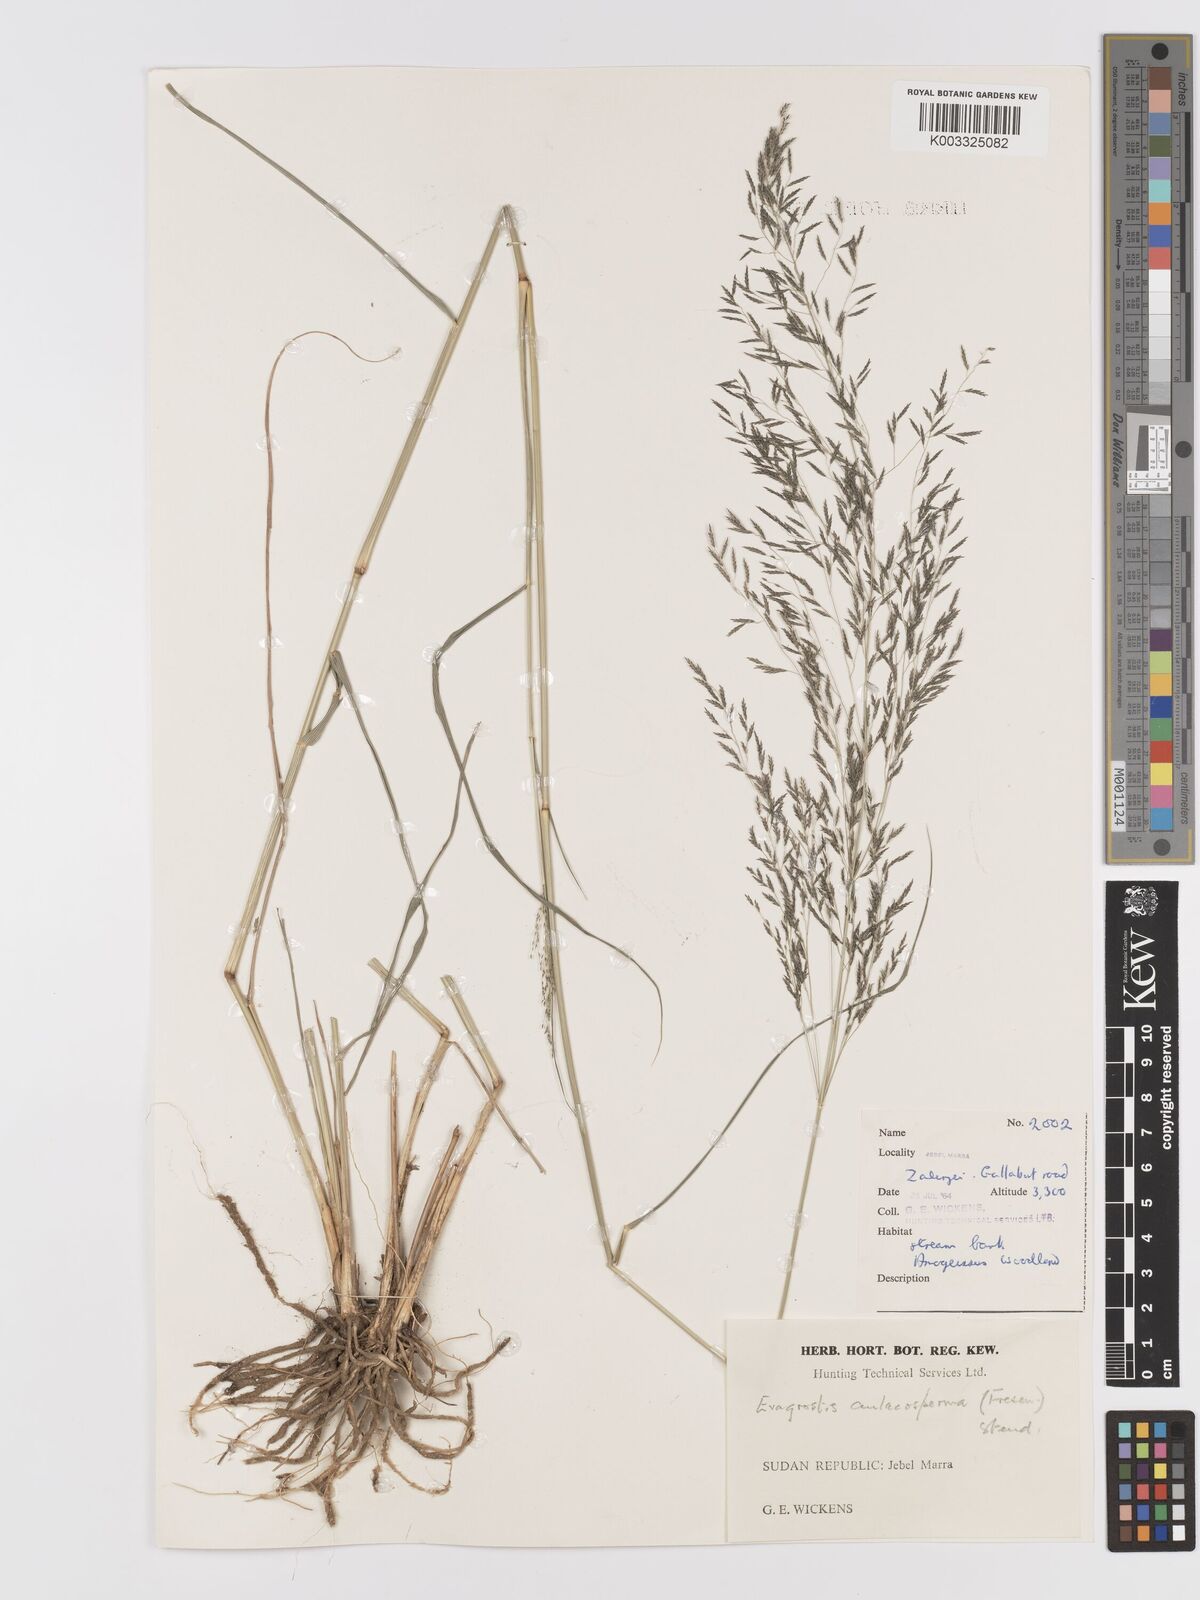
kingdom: Plantae
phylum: Tracheophyta
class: Liliopsida
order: Poales
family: Poaceae
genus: Eragrostis
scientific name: Eragrostis cylindriflora
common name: Cylinderflower lovegrass
